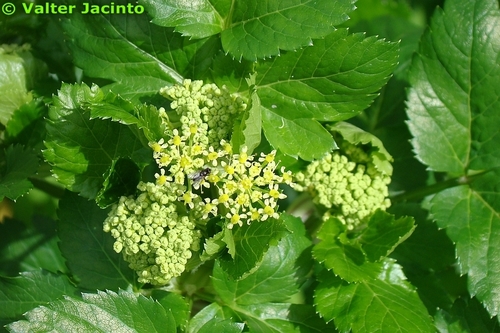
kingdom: Plantae
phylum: Tracheophyta
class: Magnoliopsida
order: Apiales
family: Apiaceae
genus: Smyrnium
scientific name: Smyrnium olusatrum
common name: Alexanders
